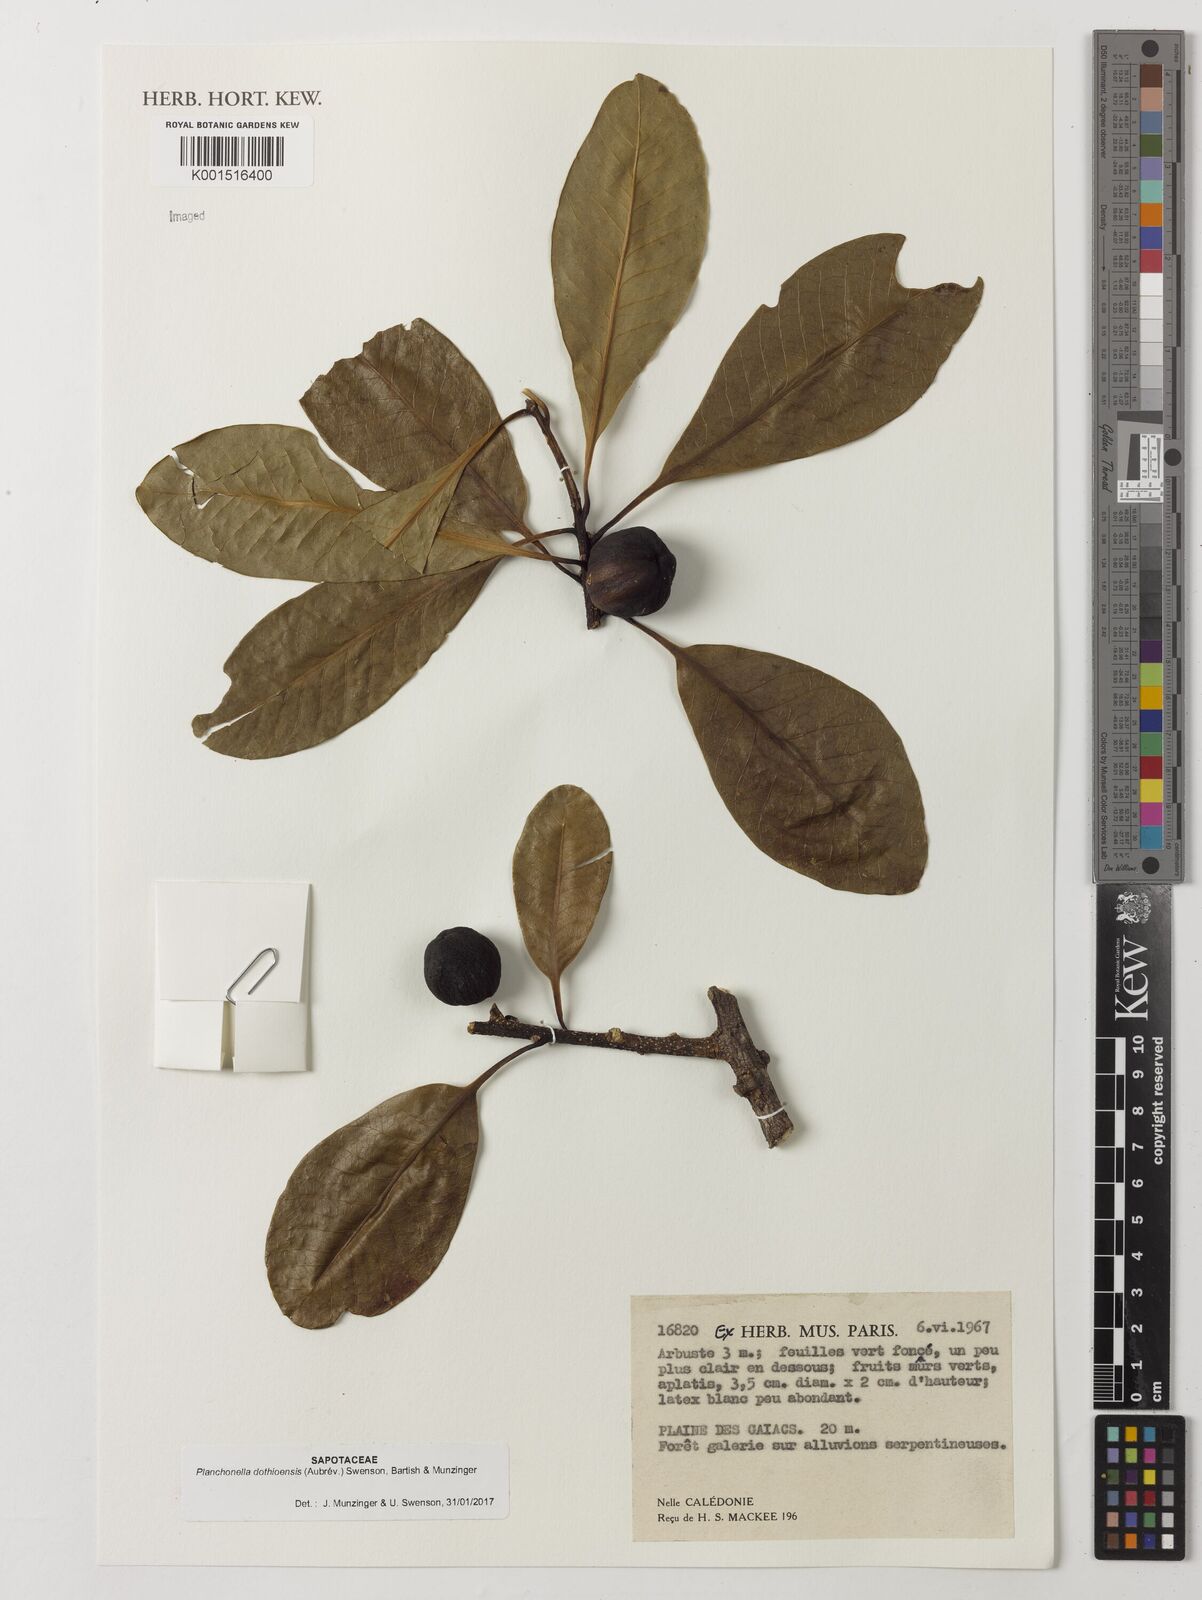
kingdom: Plantae
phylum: Tracheophyta
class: Magnoliopsida
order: Ericales
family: Sapotaceae
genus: Planchonella
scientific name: Planchonella dothioensis
